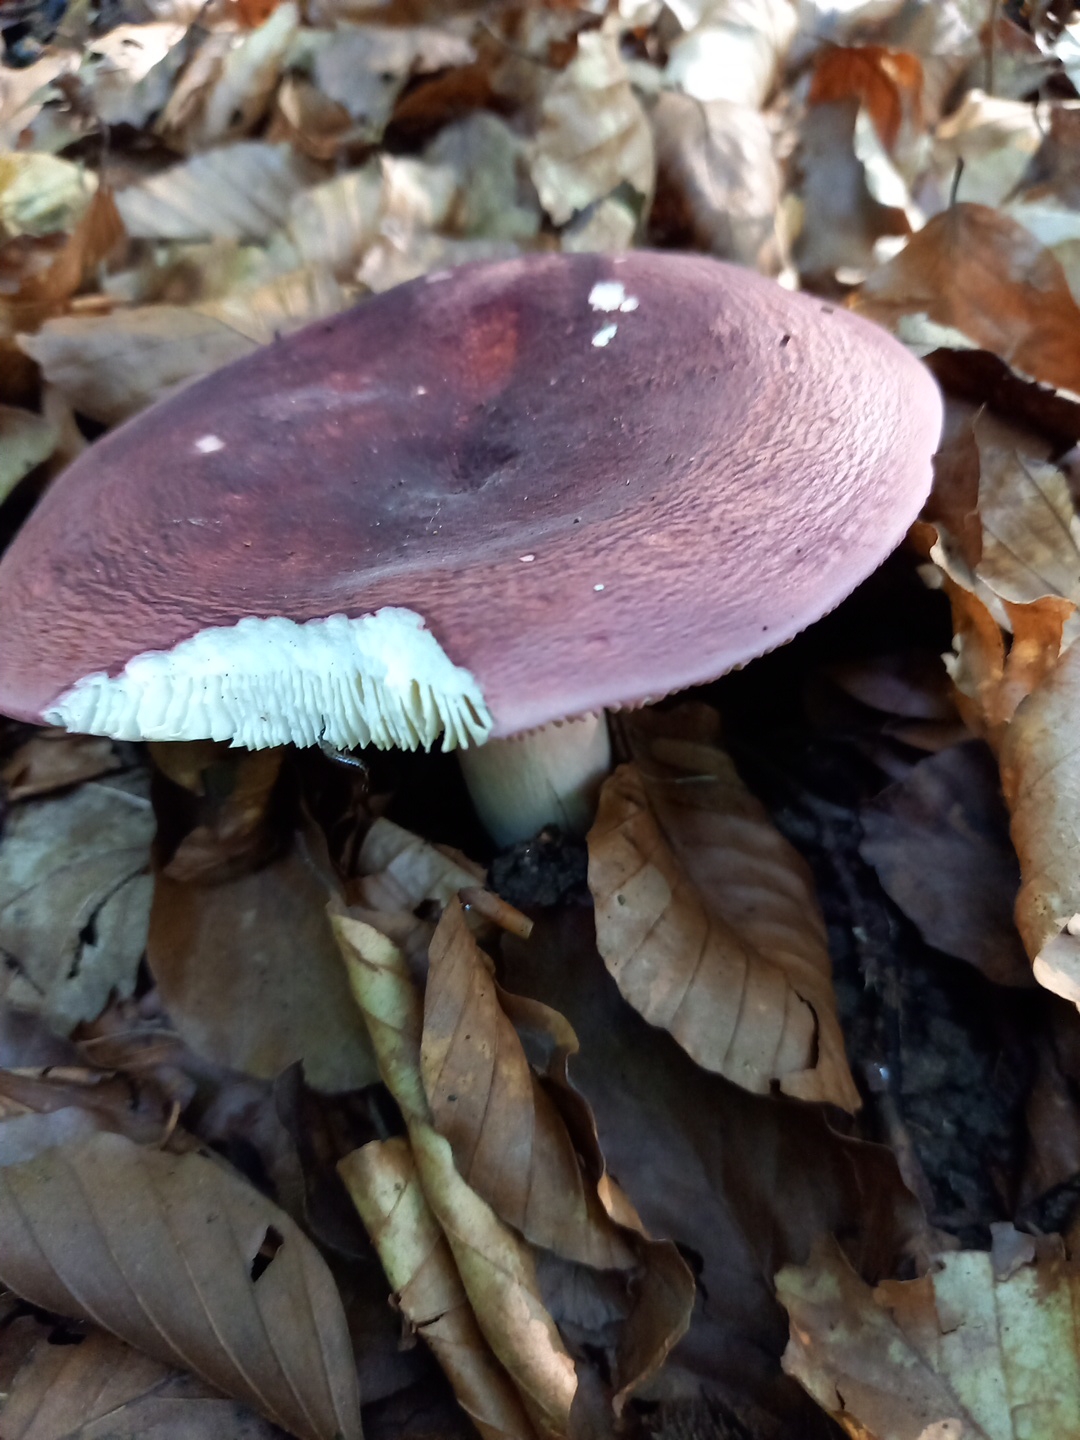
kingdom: Fungi
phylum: Basidiomycota
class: Agaricomycetes
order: Russulales
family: Russulaceae
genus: Russula
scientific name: Russula olivacea
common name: stor skørhat
